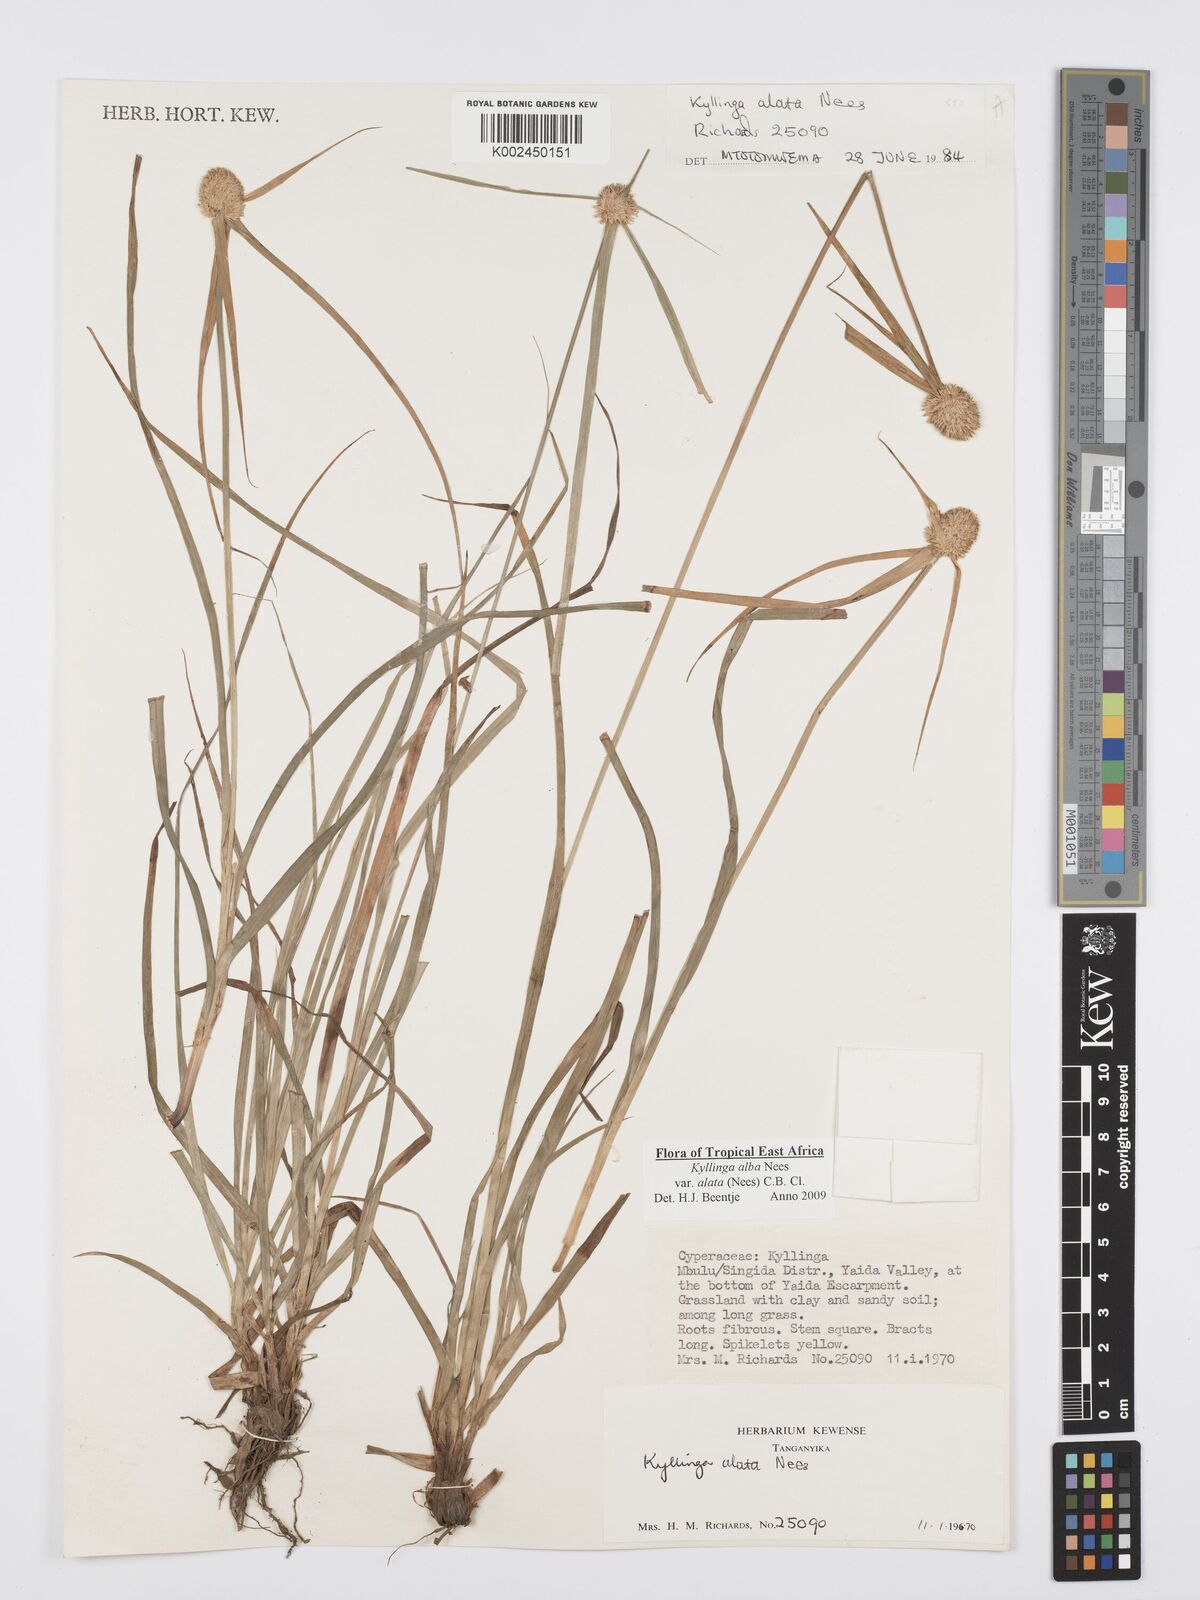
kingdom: Plantae
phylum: Tracheophyta
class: Liliopsida
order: Poales
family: Cyperaceae
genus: Cyperus
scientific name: Cyperus alatus
